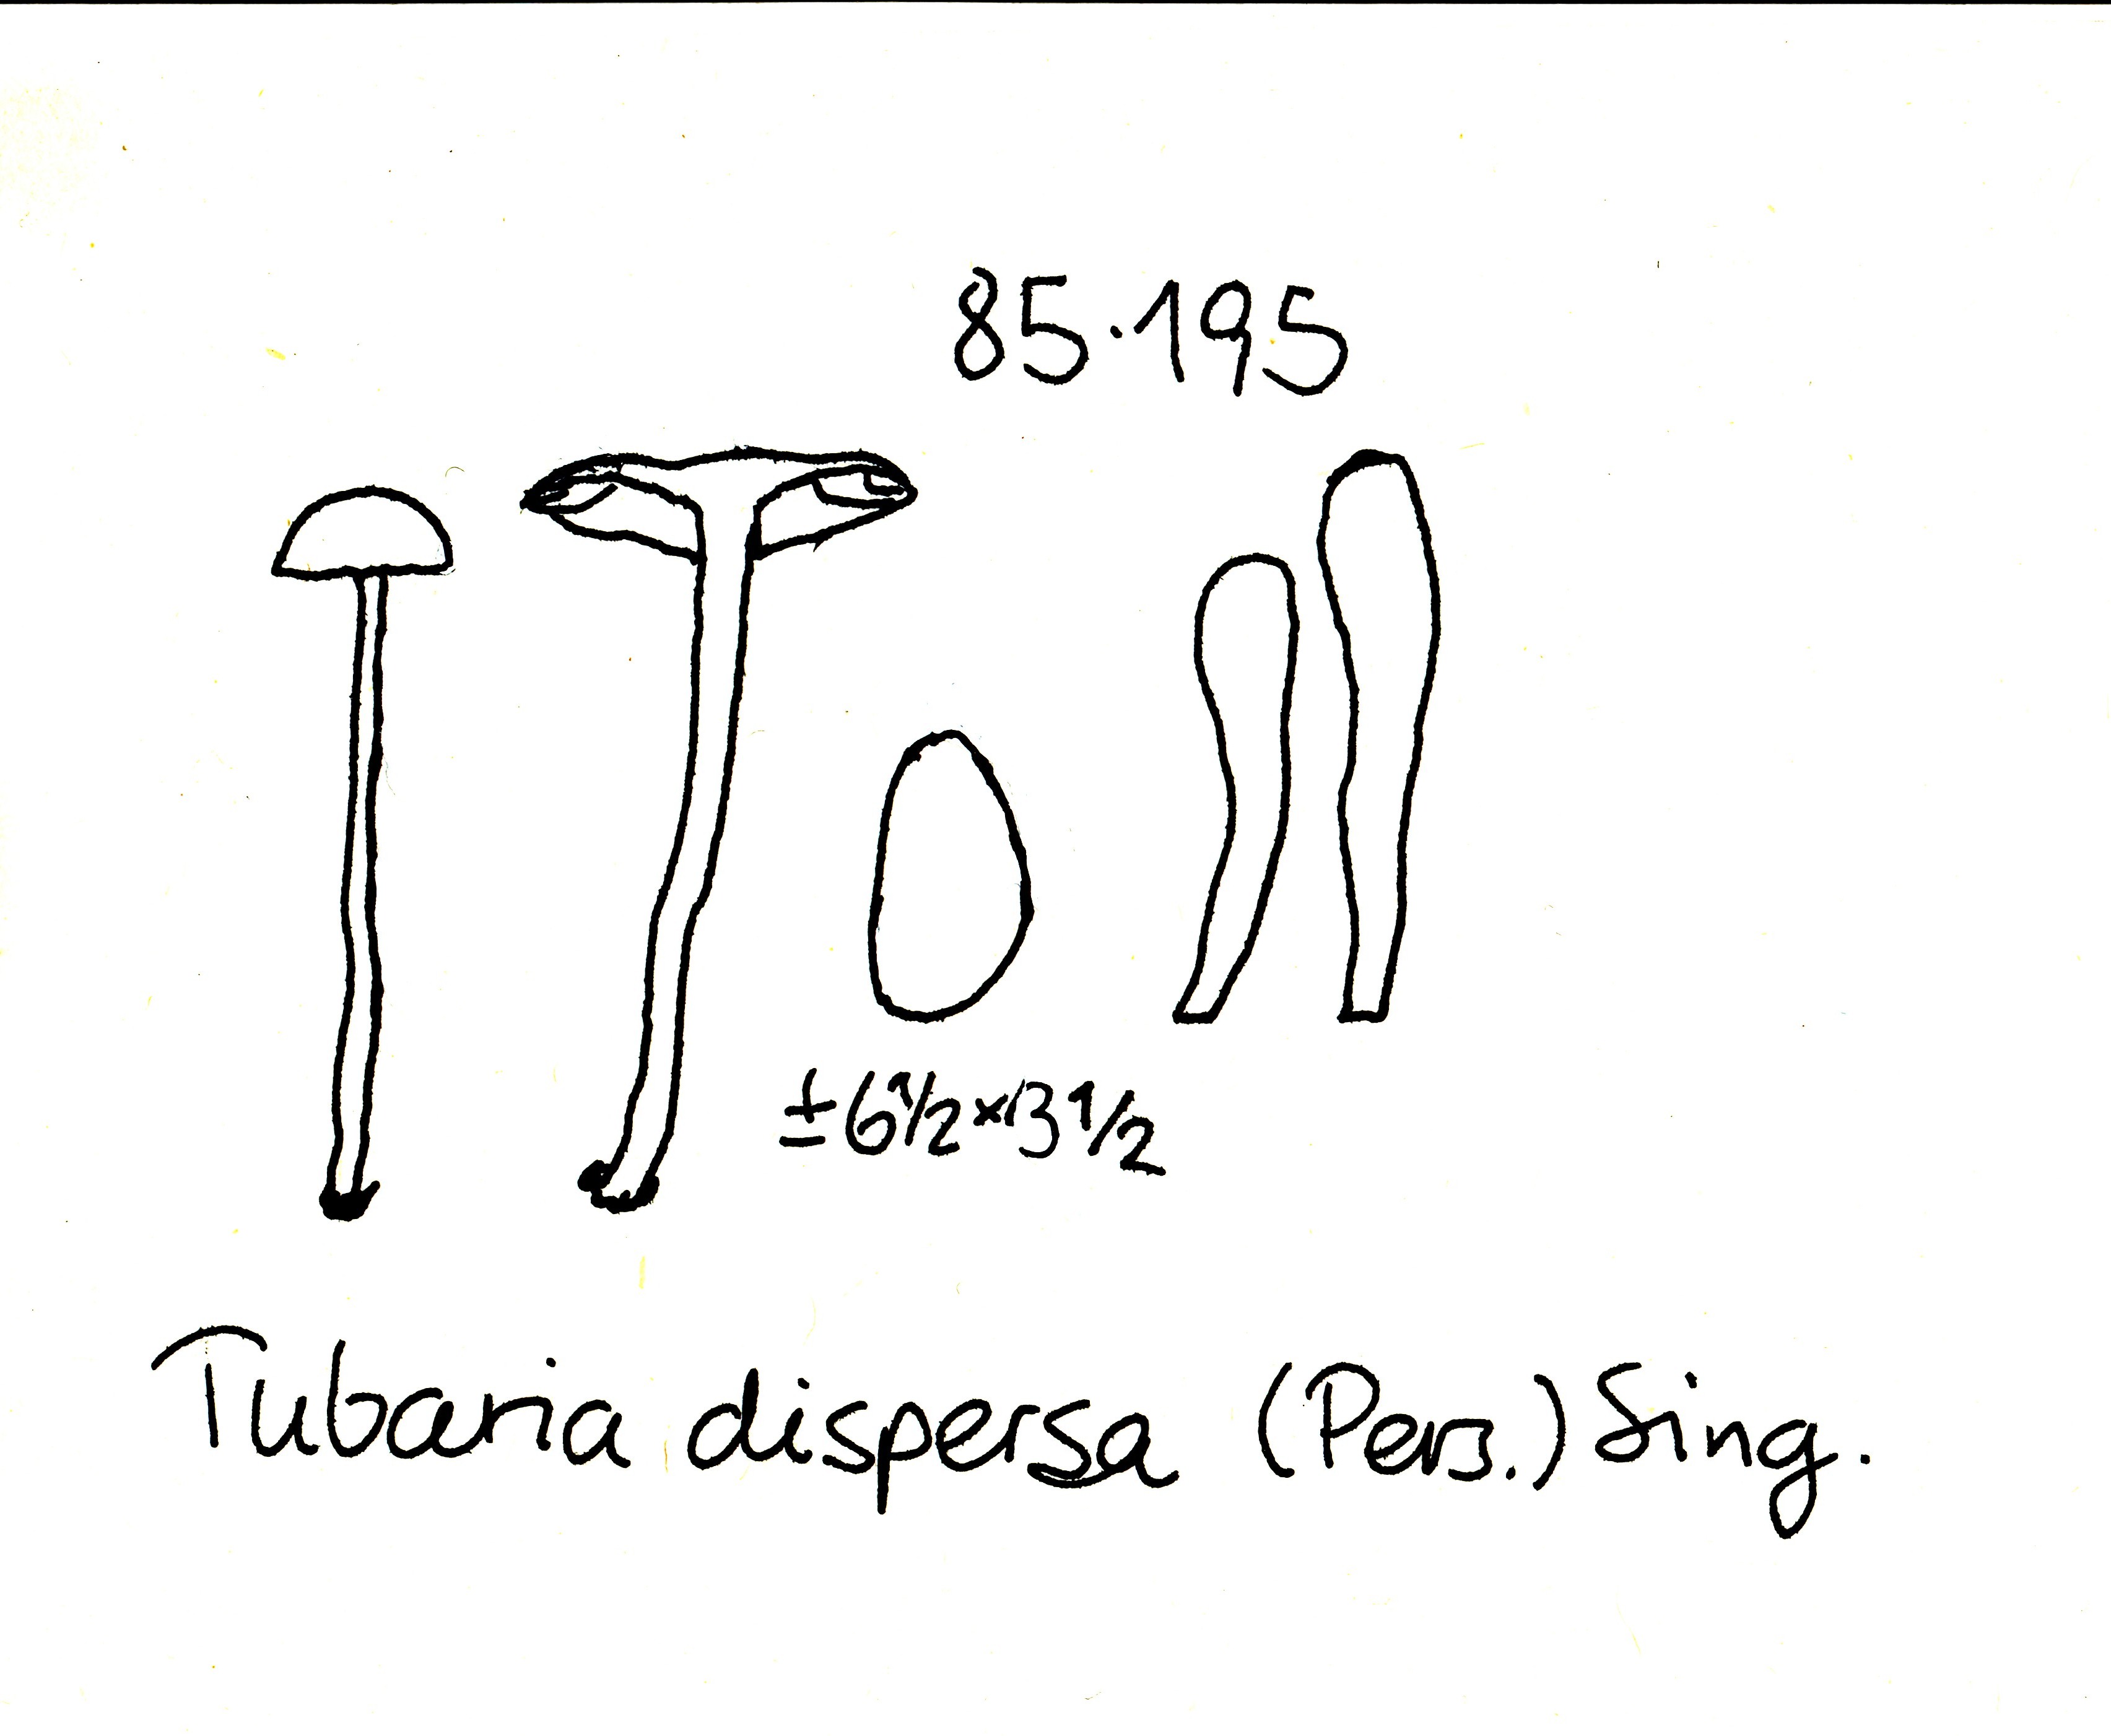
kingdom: Fungi
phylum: Basidiomycota
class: Agaricomycetes
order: Agaricales
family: Tubariaceae
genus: Tubaria
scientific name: Tubaria dispersa
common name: tjørne-fnughat
